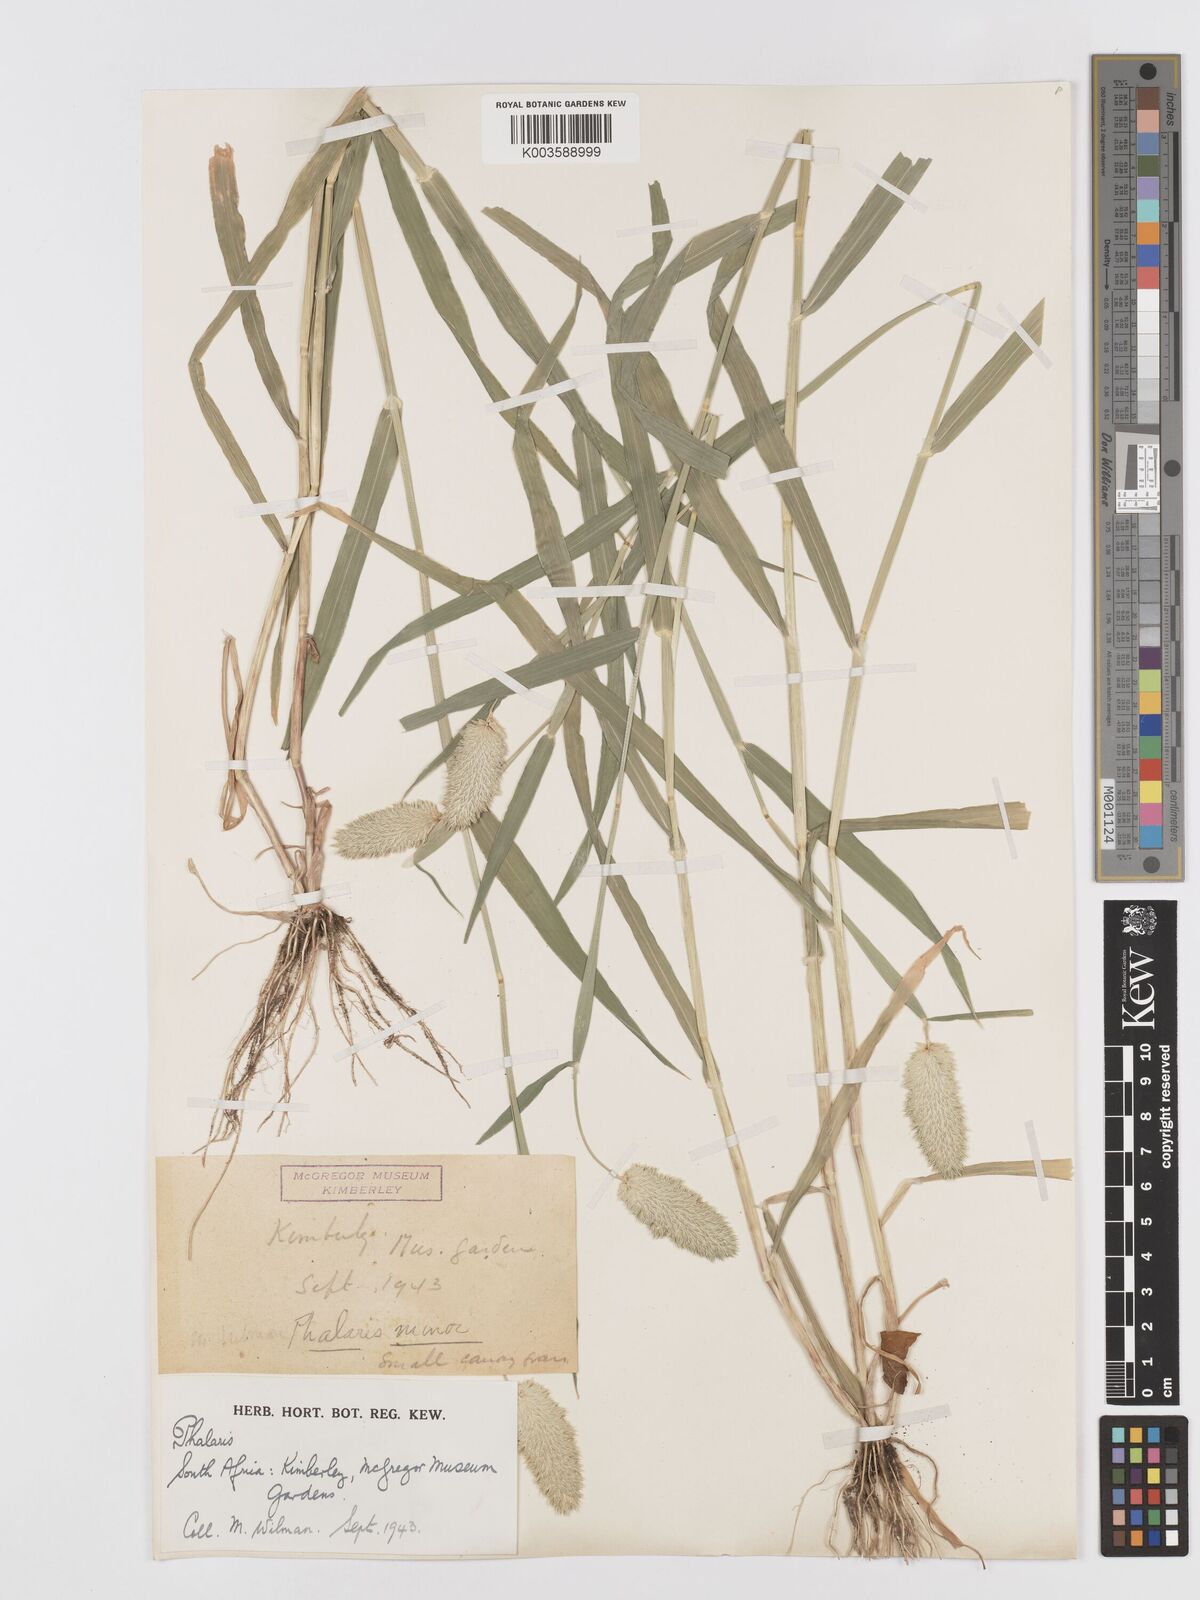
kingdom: Plantae
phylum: Tracheophyta
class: Liliopsida
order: Poales
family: Poaceae
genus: Phalaris
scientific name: Phalaris minor
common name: Littleseed canarygrass
